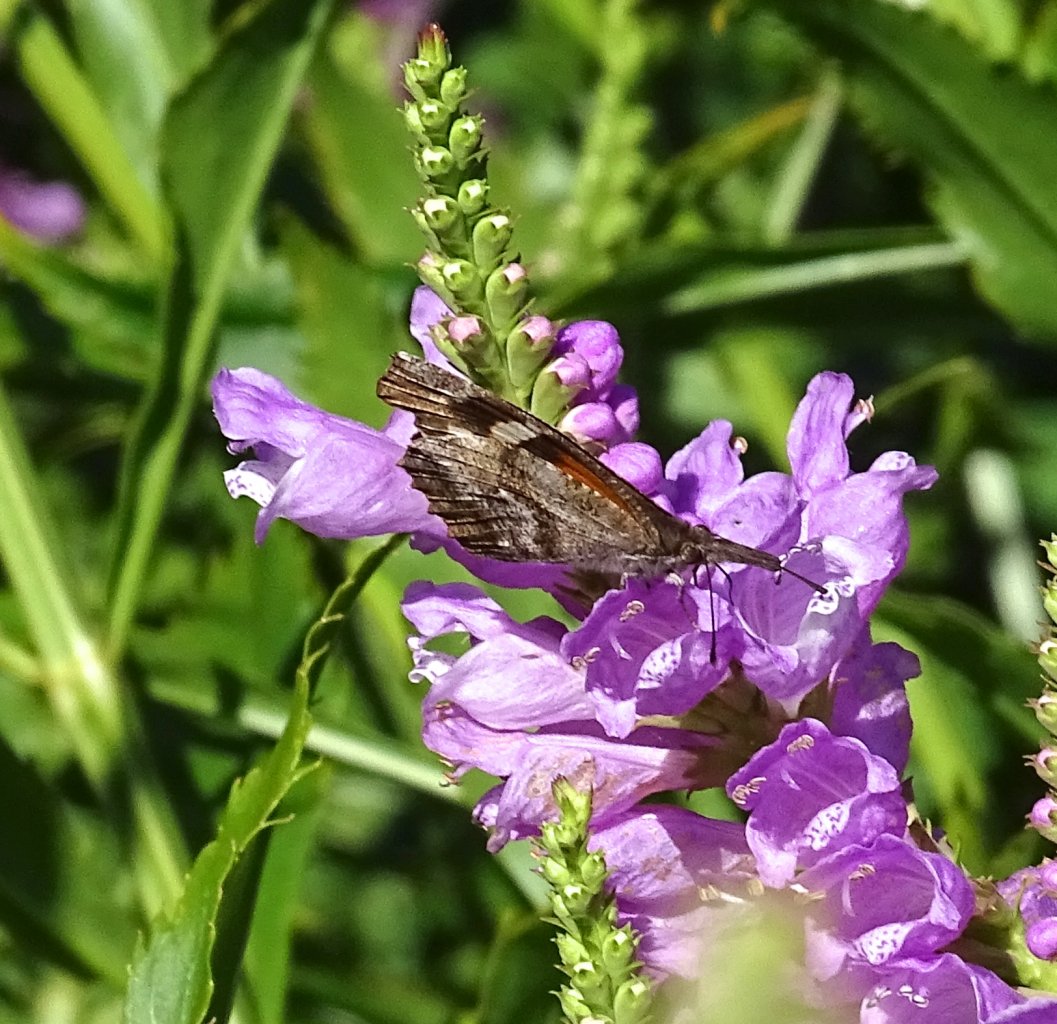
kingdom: Animalia
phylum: Arthropoda
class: Insecta
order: Lepidoptera
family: Nymphalidae
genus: Libytheana
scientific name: Libytheana carinenta
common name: American Snout
